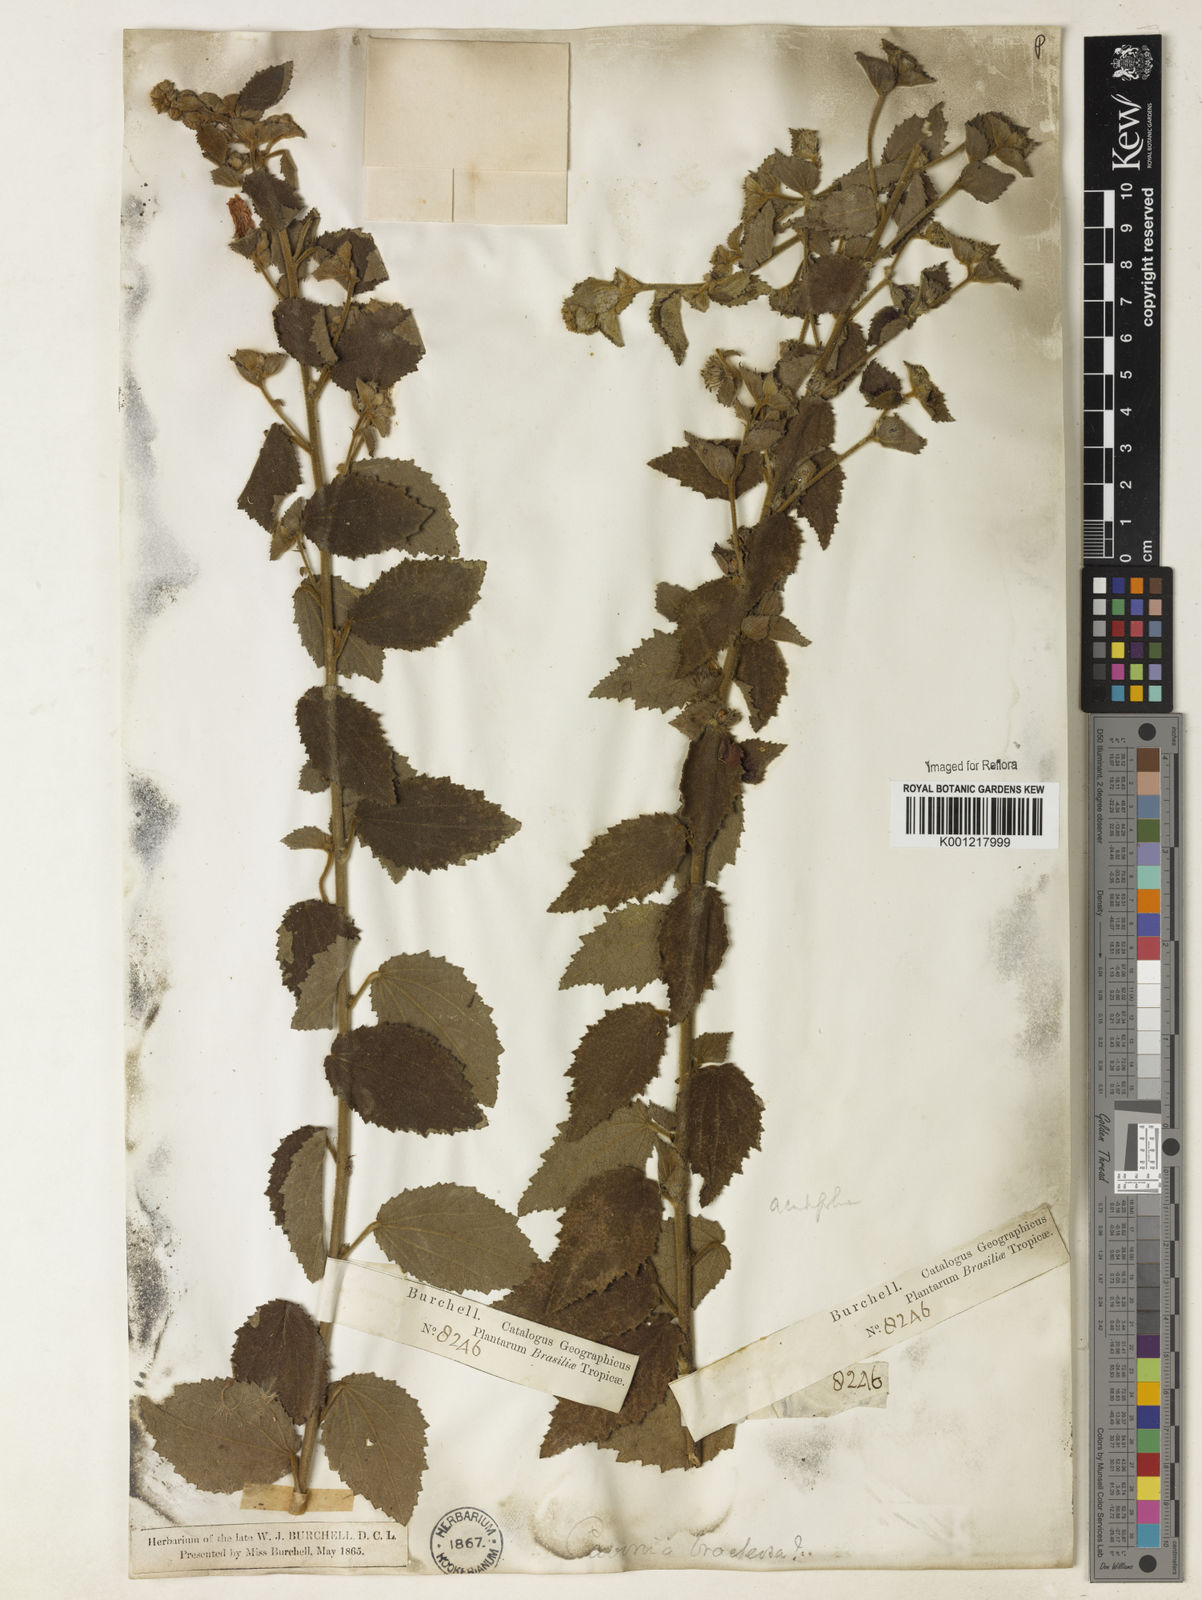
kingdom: Plantae
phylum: Tracheophyta
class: Magnoliopsida
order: Malvales
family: Malvaceae
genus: Peltaea
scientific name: Peltaea
